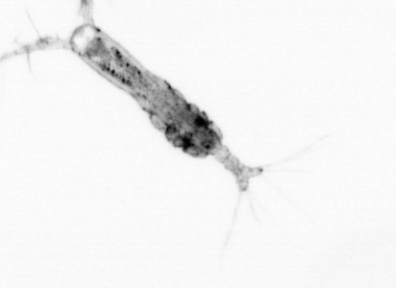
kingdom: Animalia
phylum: Arthropoda
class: Copepoda
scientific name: Copepoda
